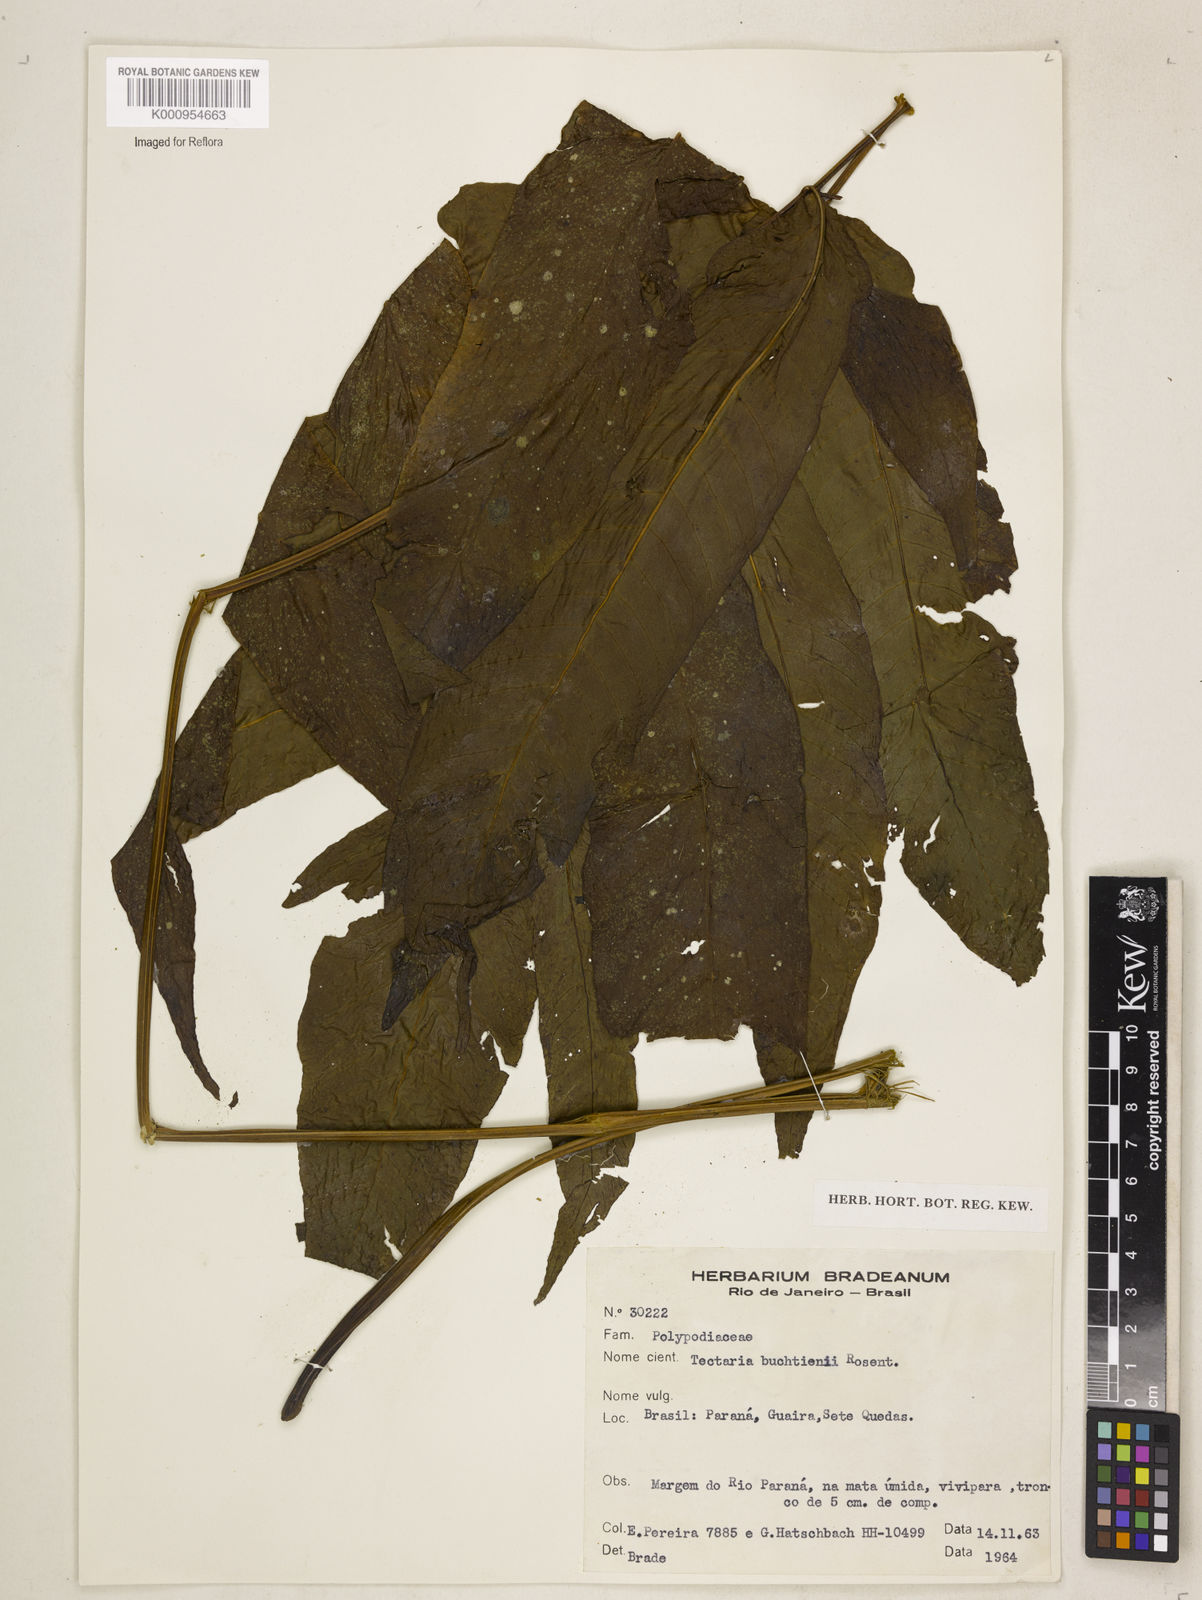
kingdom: Plantae
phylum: Tracheophyta
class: Polypodiopsida
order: Polypodiales
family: Tectariaceae
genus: Tectaria
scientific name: Tectaria antioquiana
